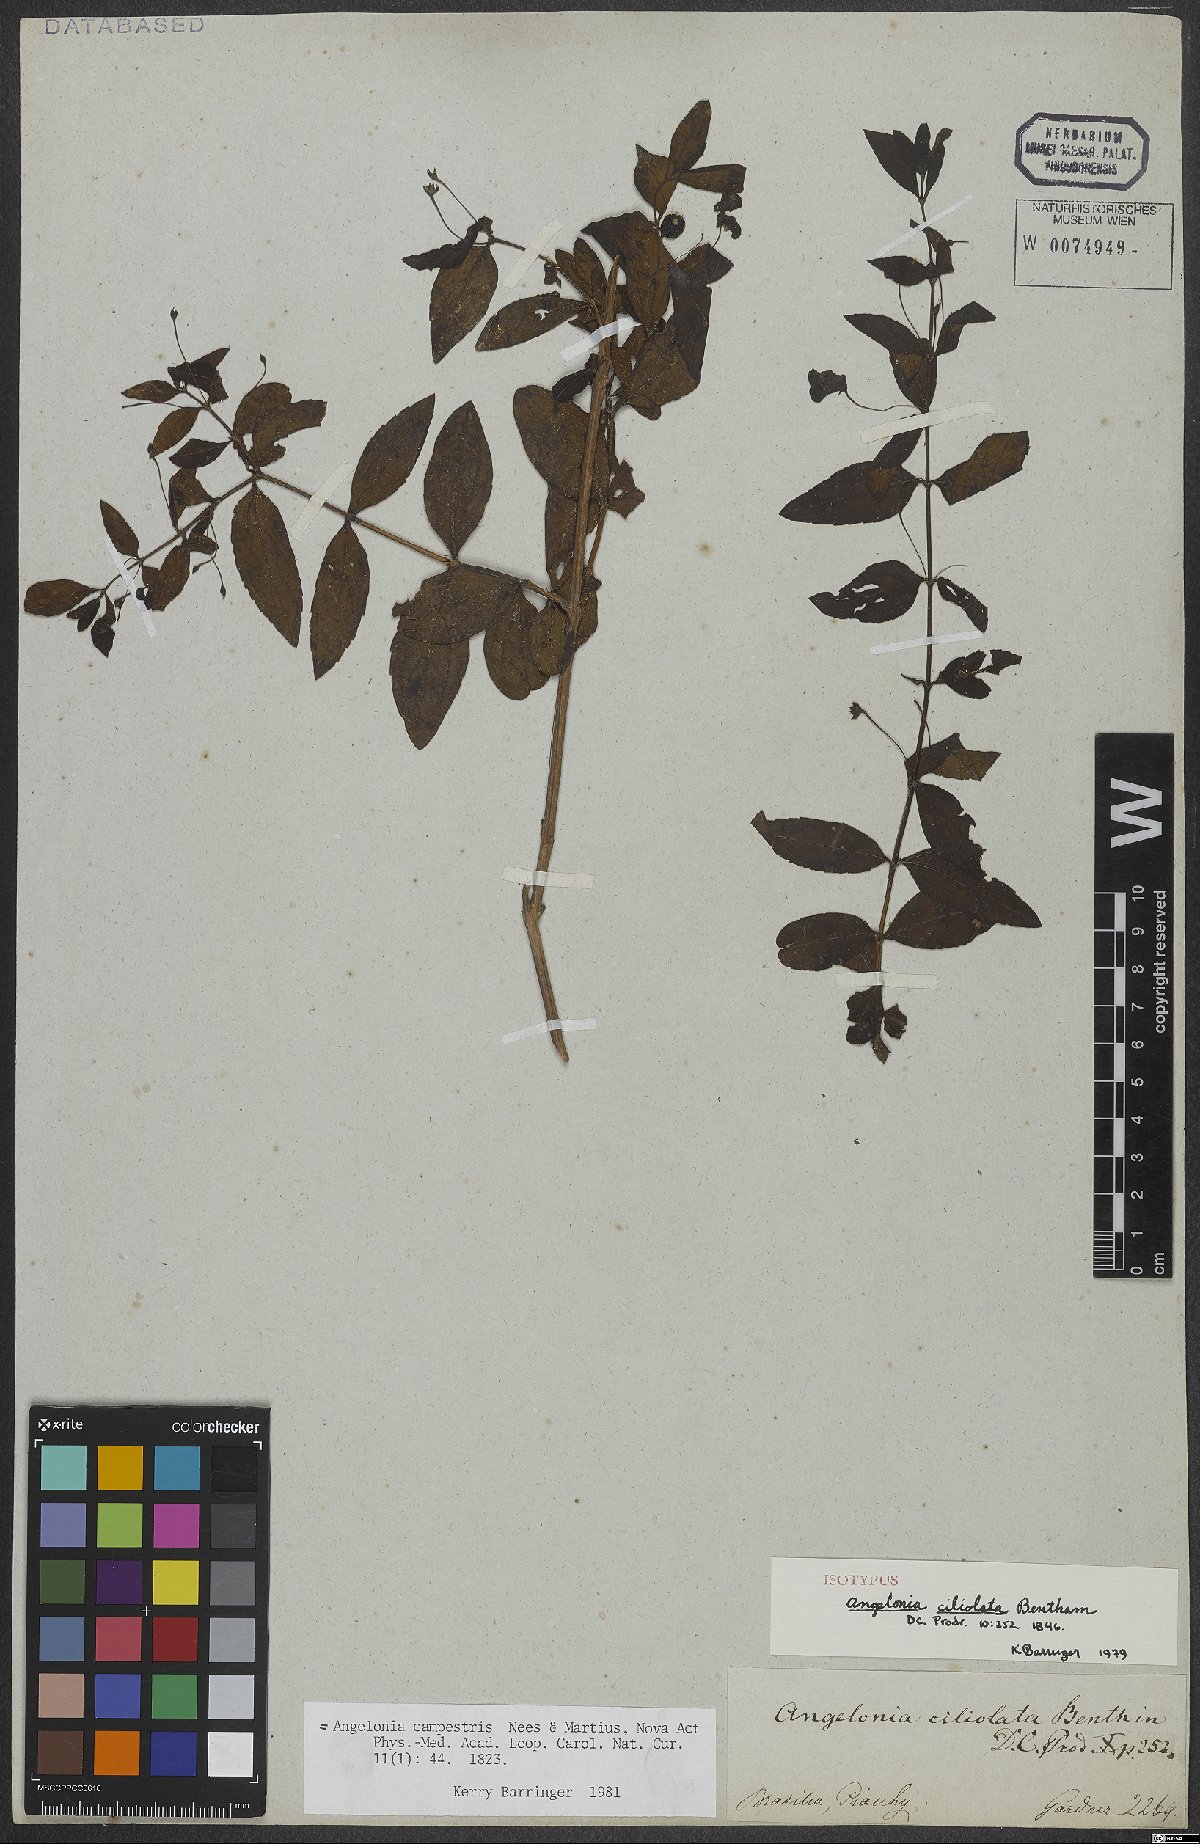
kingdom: Plantae
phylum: Tracheophyta
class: Magnoliopsida
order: Lamiales
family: Plantaginaceae
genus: Angelonia
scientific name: Angelonia campestris
